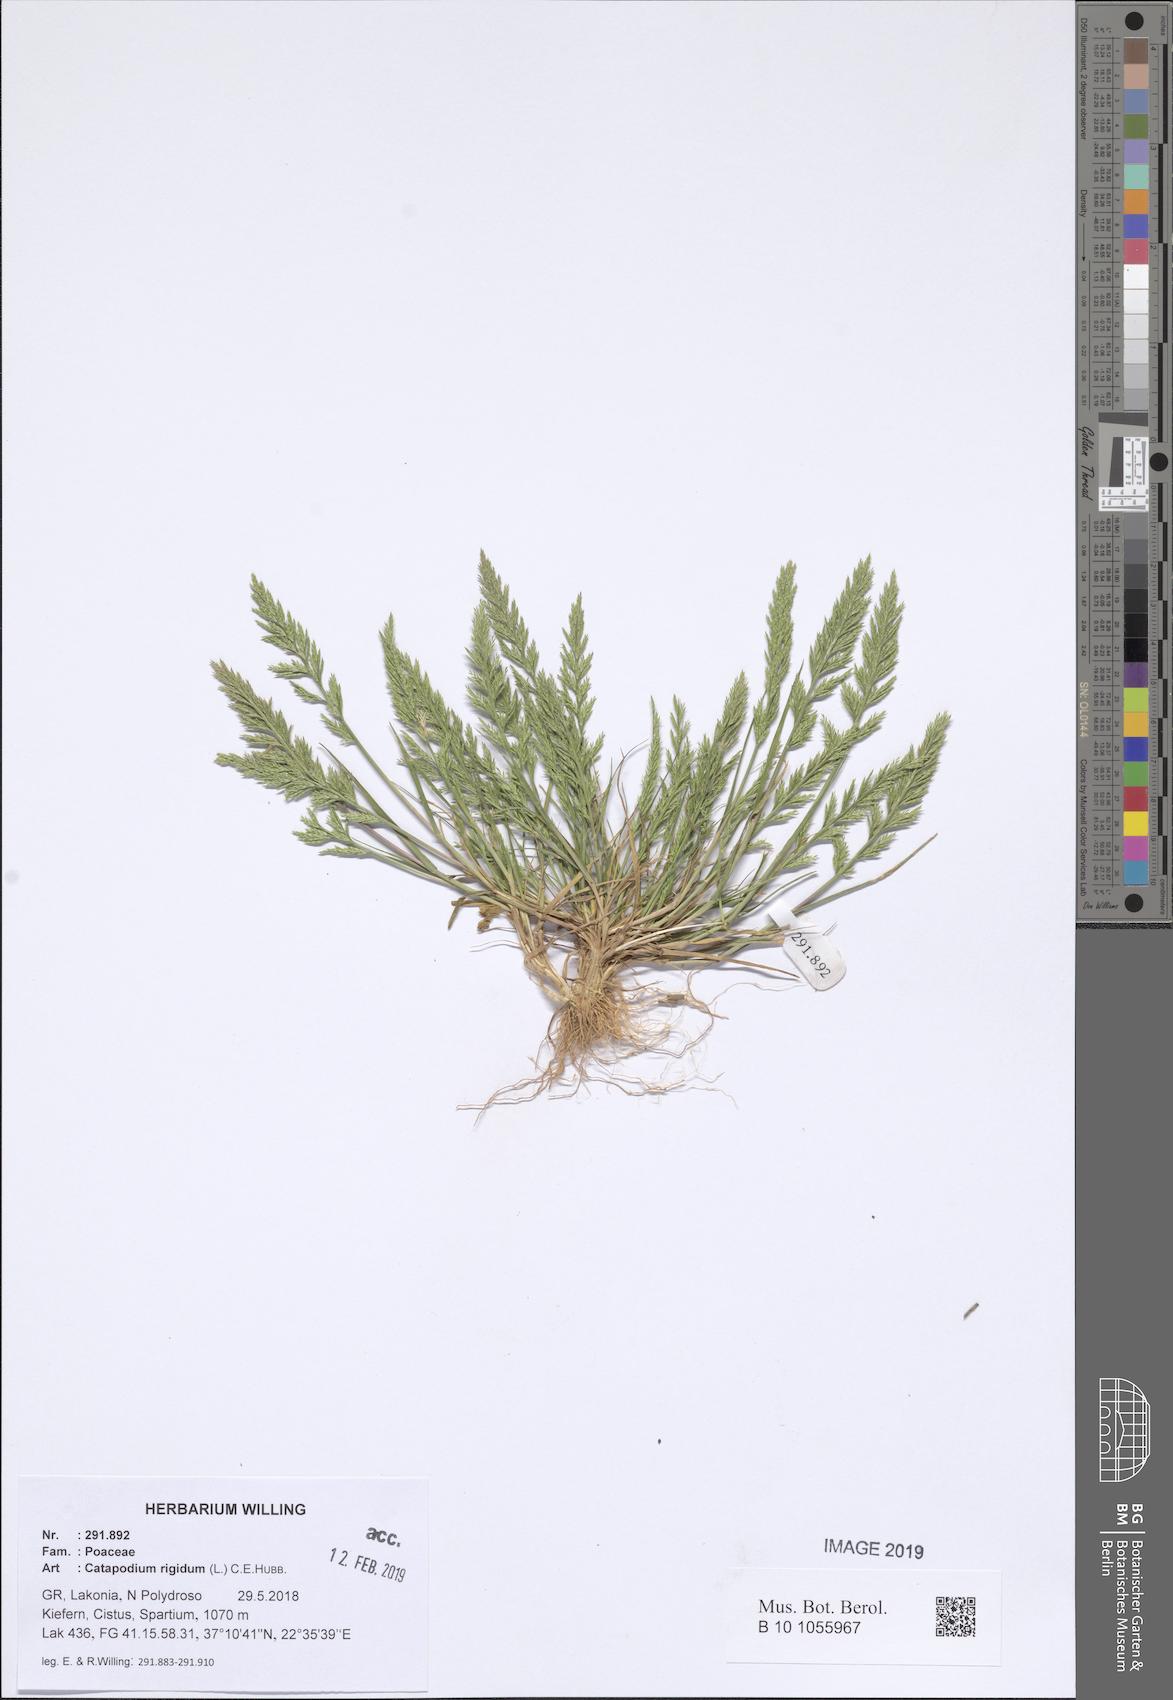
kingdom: Plantae
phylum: Tracheophyta
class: Liliopsida
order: Poales
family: Poaceae
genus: Catapodium
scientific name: Catapodium rigidum
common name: Fern-grass
